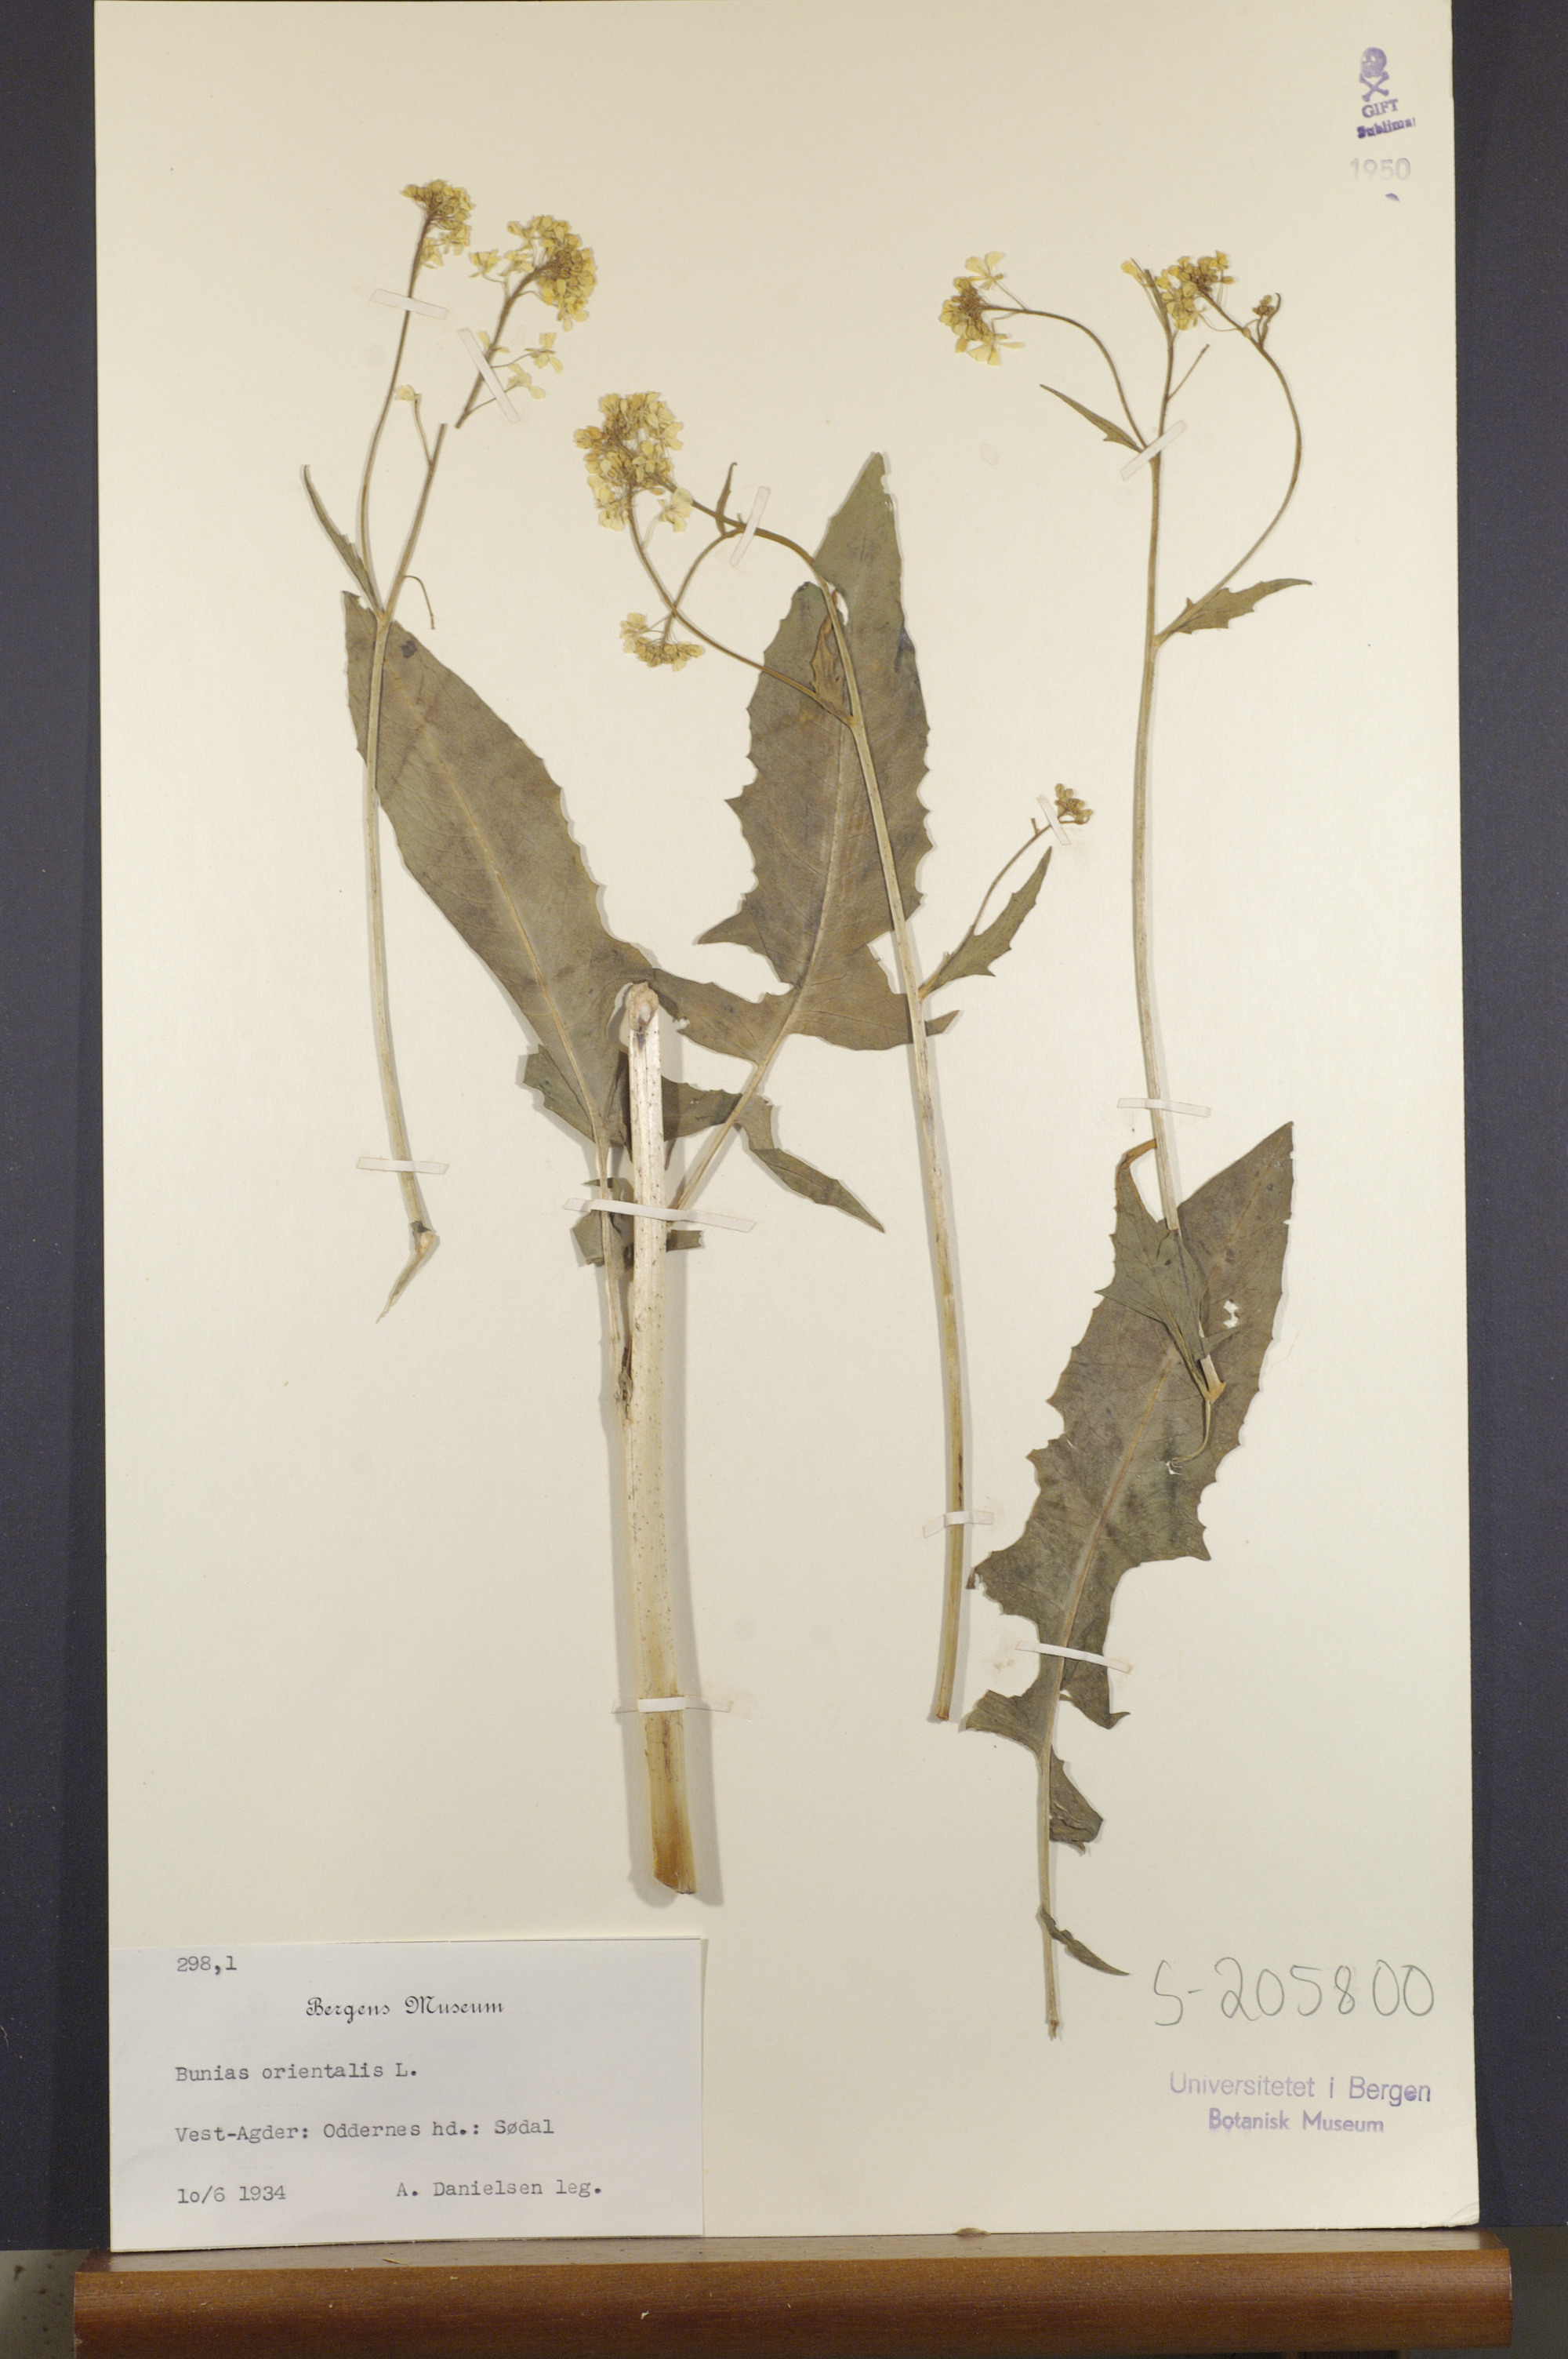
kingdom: Plantae
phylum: Tracheophyta
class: Magnoliopsida
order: Brassicales
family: Brassicaceae
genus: Bunias
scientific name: Bunias orientalis
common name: Warty-cabbage
